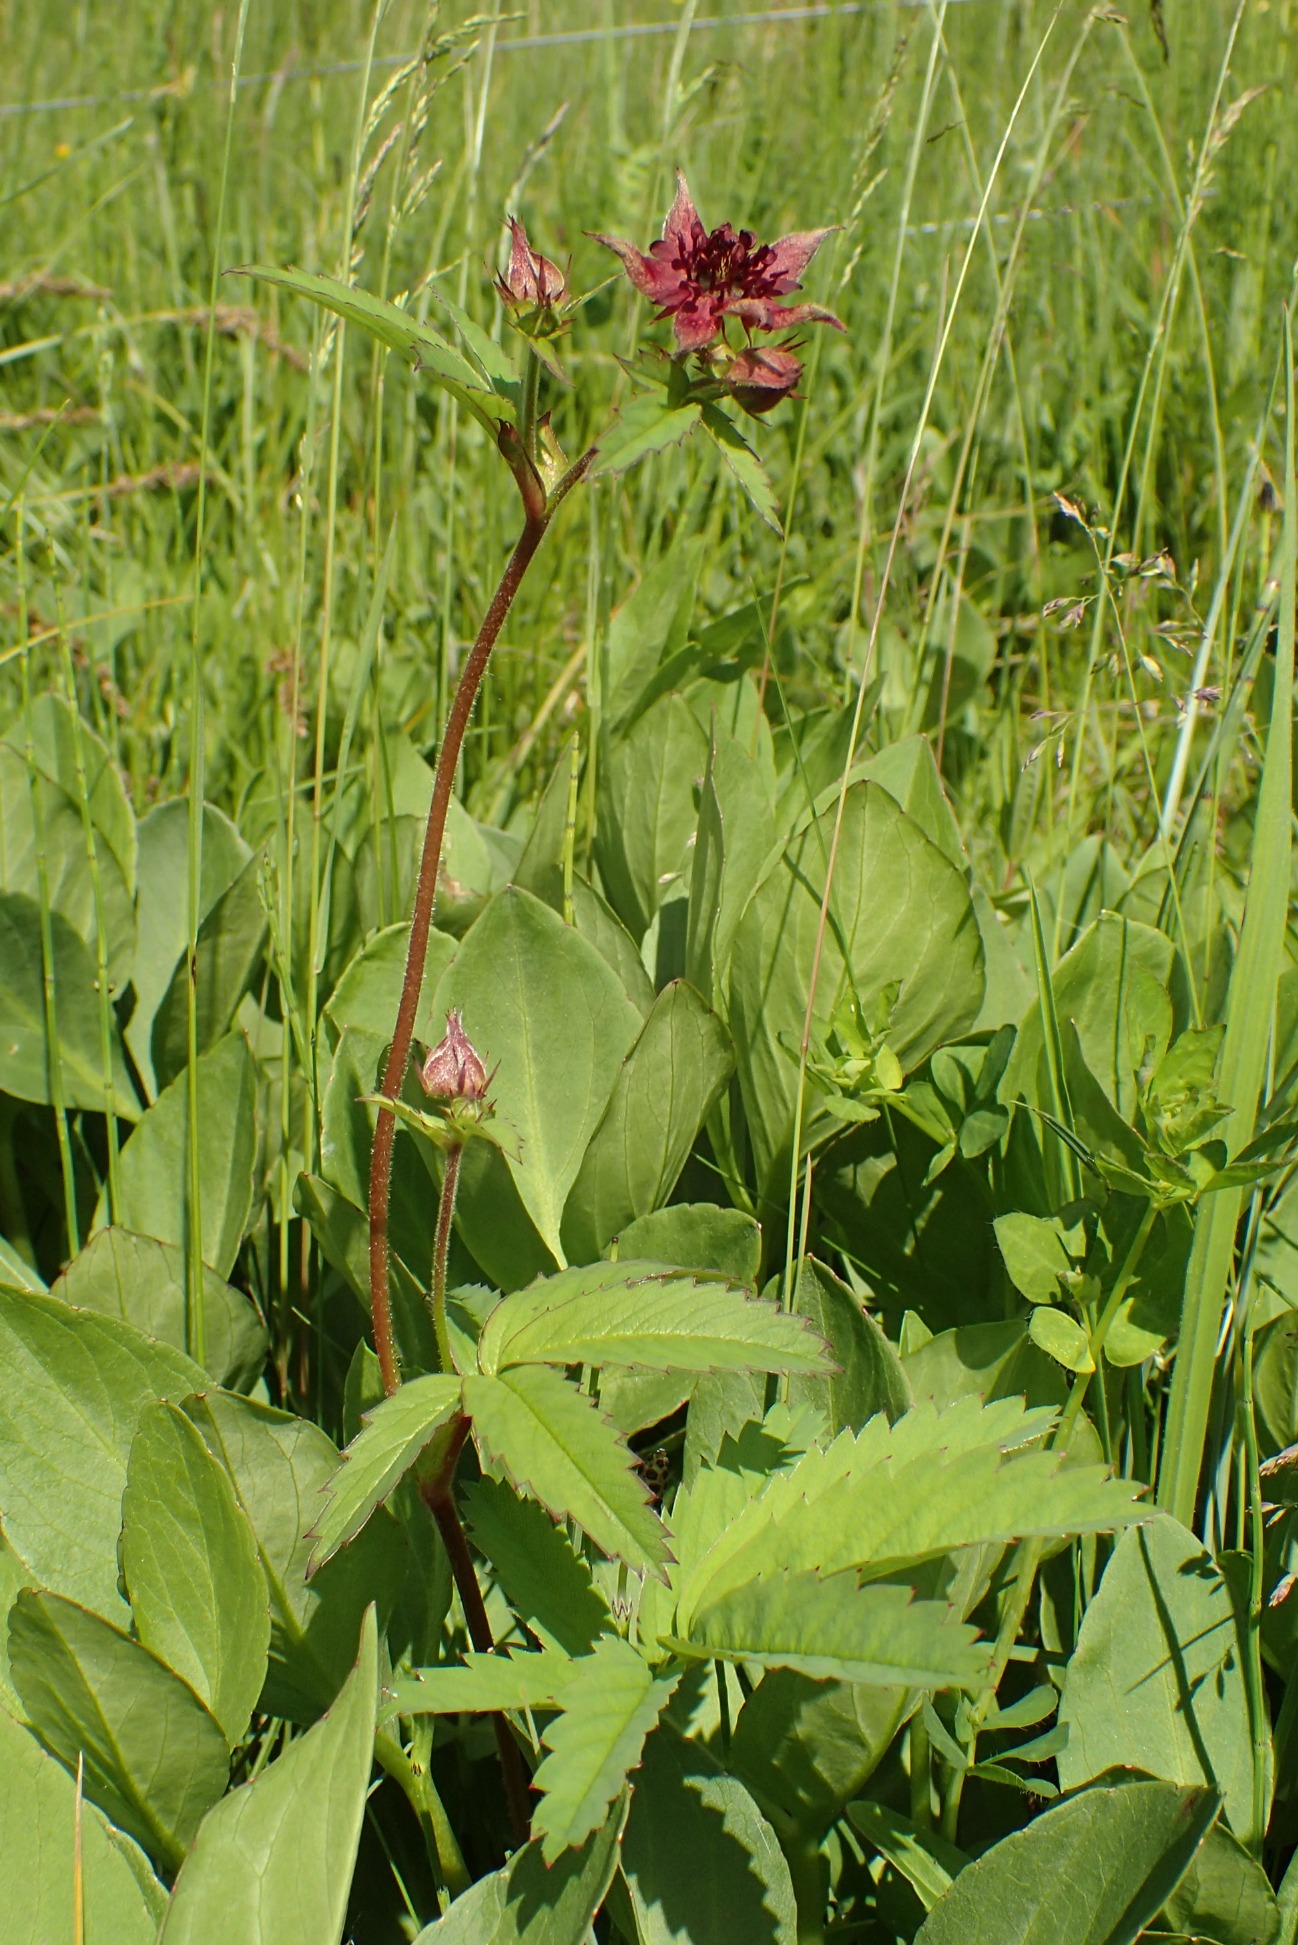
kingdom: Plantae
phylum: Tracheophyta
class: Magnoliopsida
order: Rosales
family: Rosaceae
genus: Comarum
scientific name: Comarum palustre
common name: Kragefod
